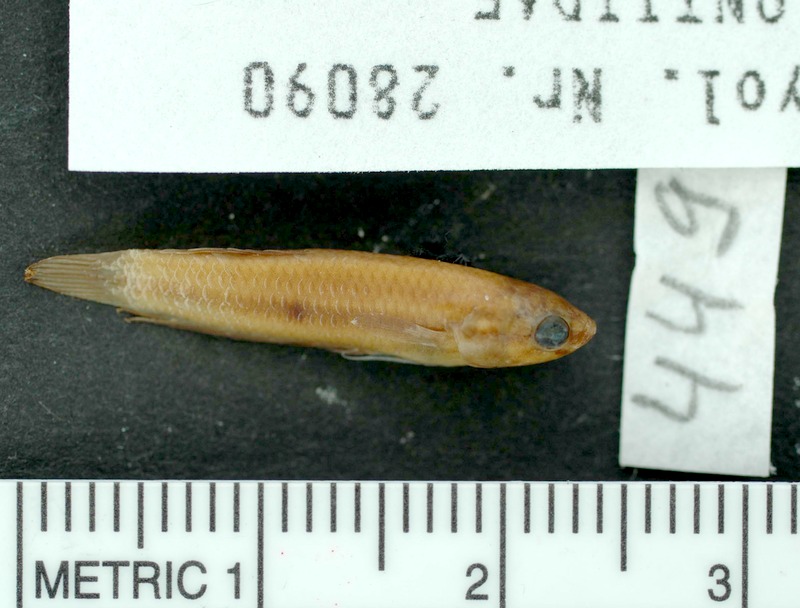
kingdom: Animalia
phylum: Chordata
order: Perciformes
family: Osphronemidae
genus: Betta
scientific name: Betta brownorum
